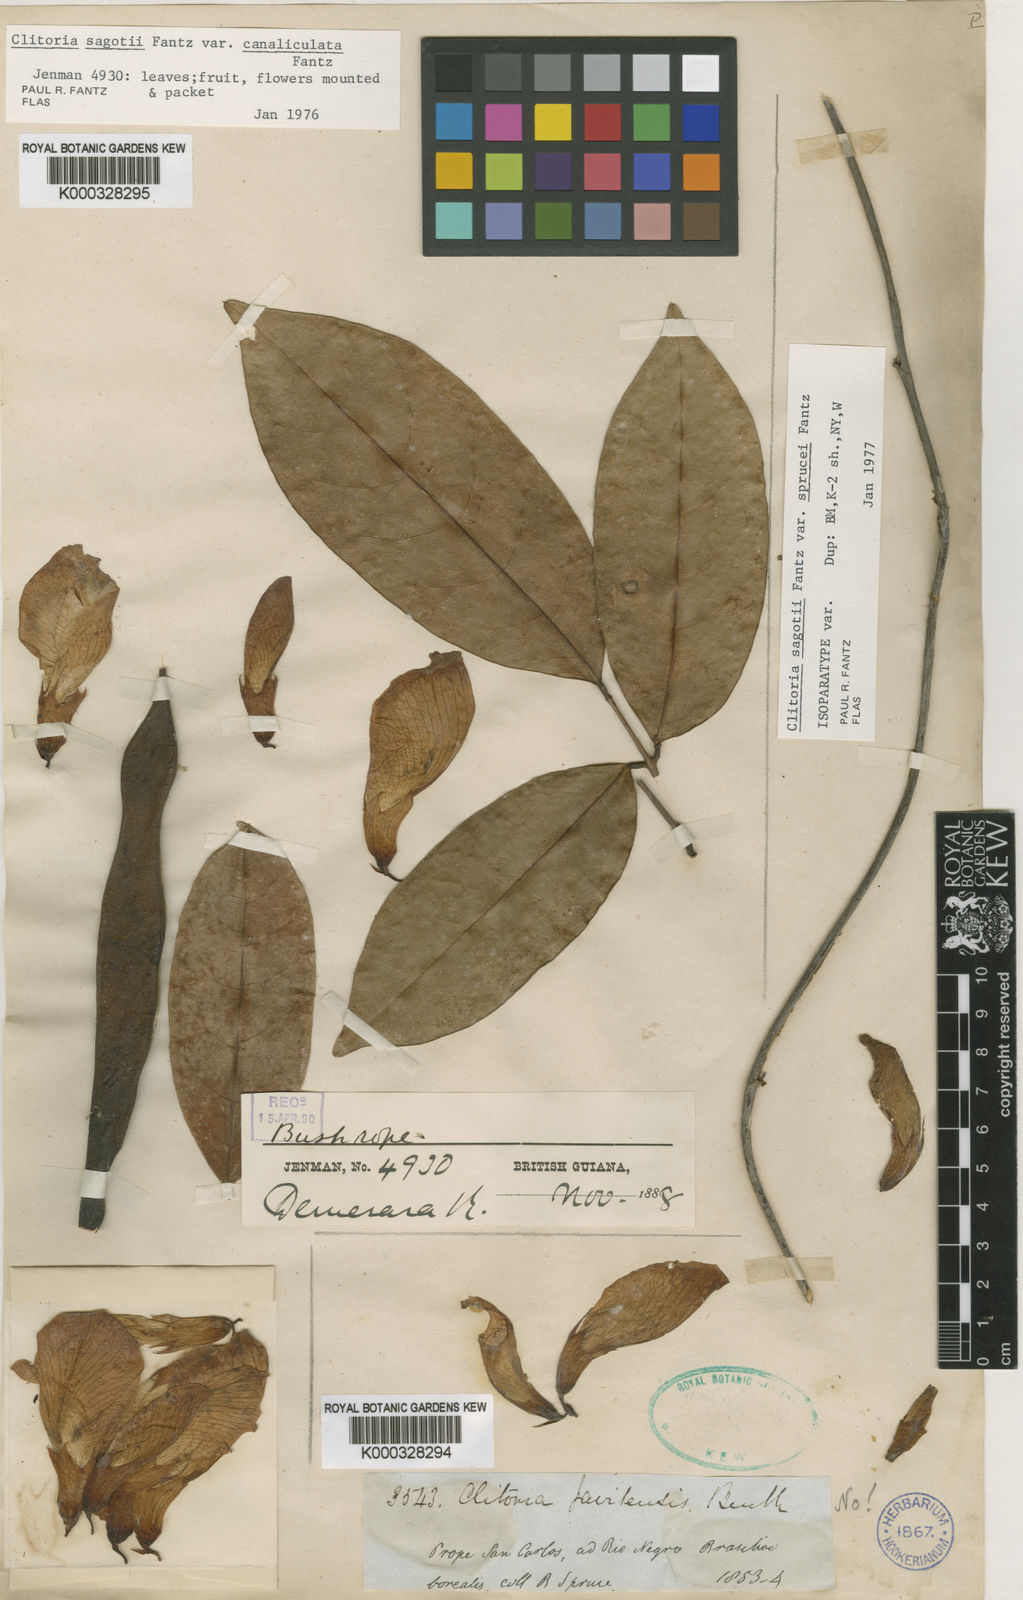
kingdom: Plantae
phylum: Tracheophyta
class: Magnoliopsida
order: Fabales
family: Fabaceae
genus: Clitoria
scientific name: Clitoria sagotii
